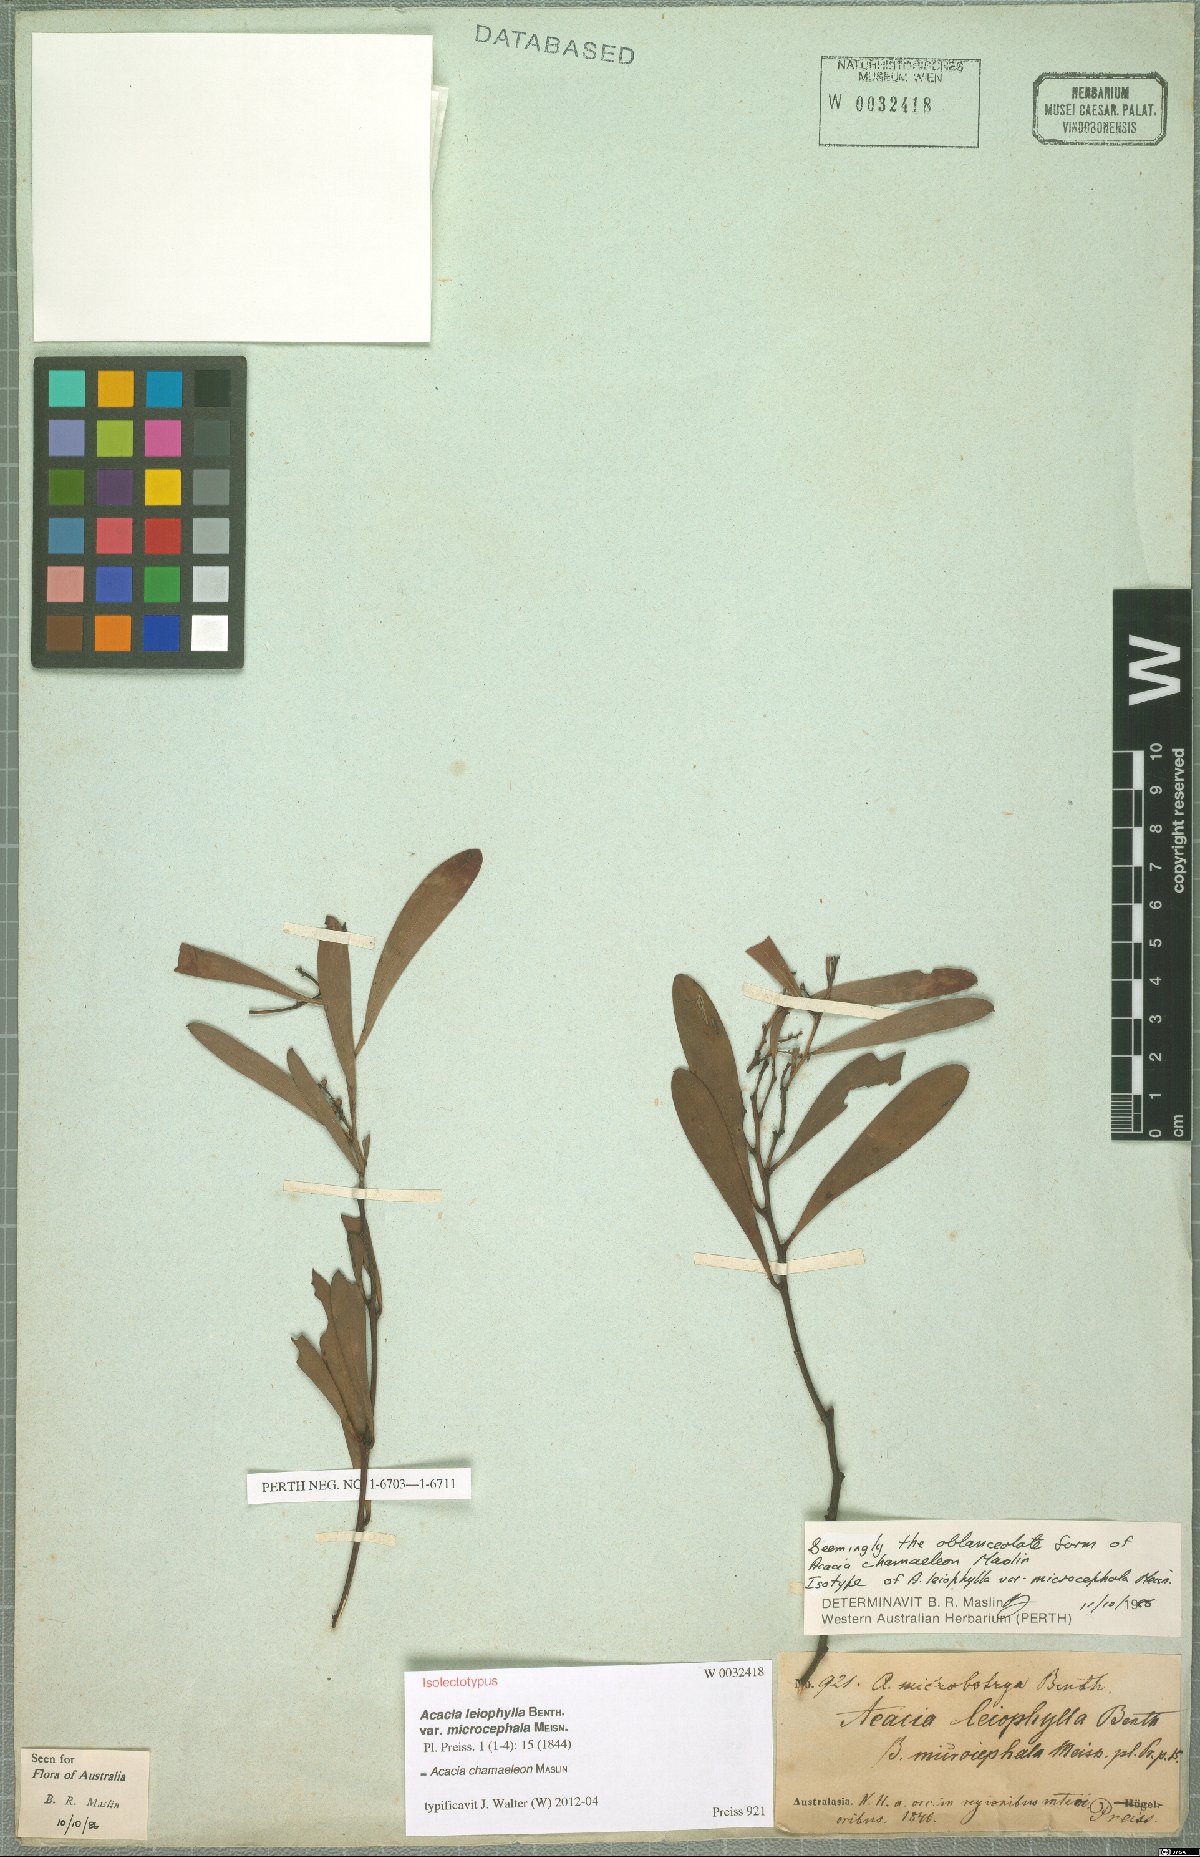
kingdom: Plantae
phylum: Tracheophyta
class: Magnoliopsida
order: Fabales
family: Fabaceae
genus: Acacia
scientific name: Acacia chamaeleon
